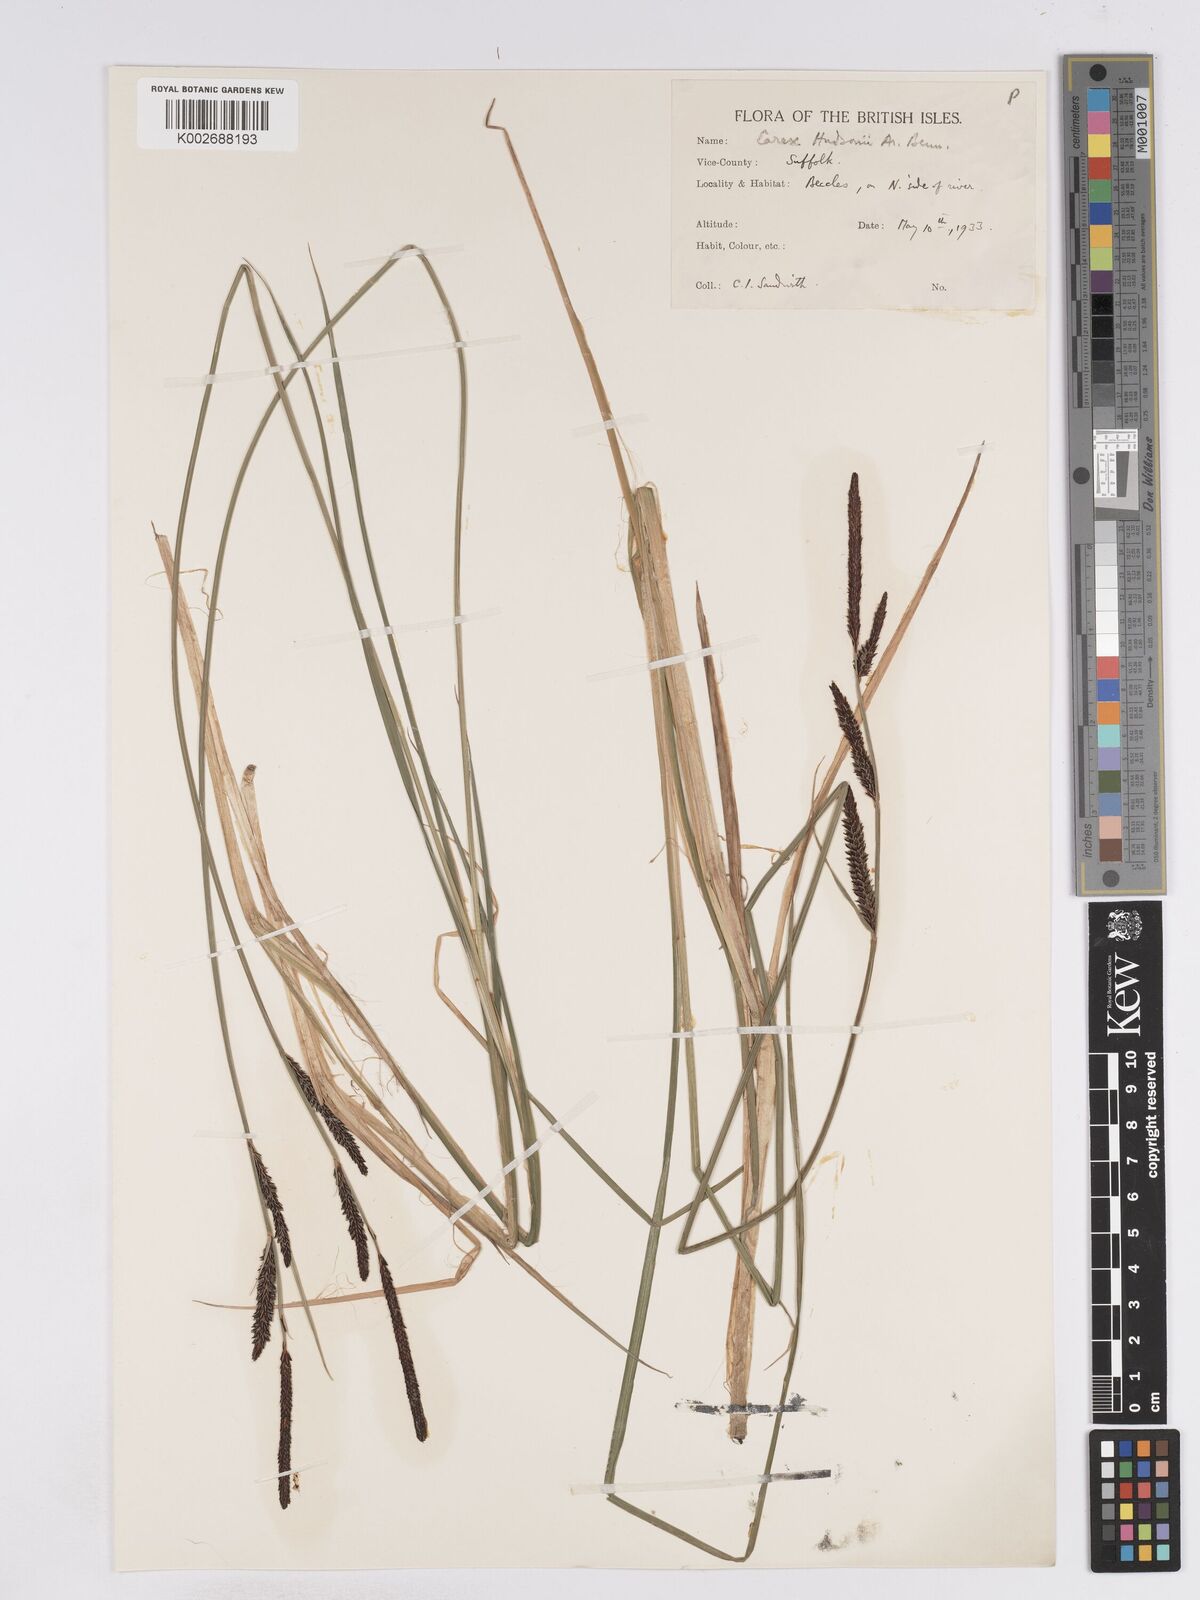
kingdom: Plantae
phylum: Tracheophyta
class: Liliopsida
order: Poales
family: Cyperaceae
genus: Carex
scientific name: Carex elata
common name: Tufted sedge
